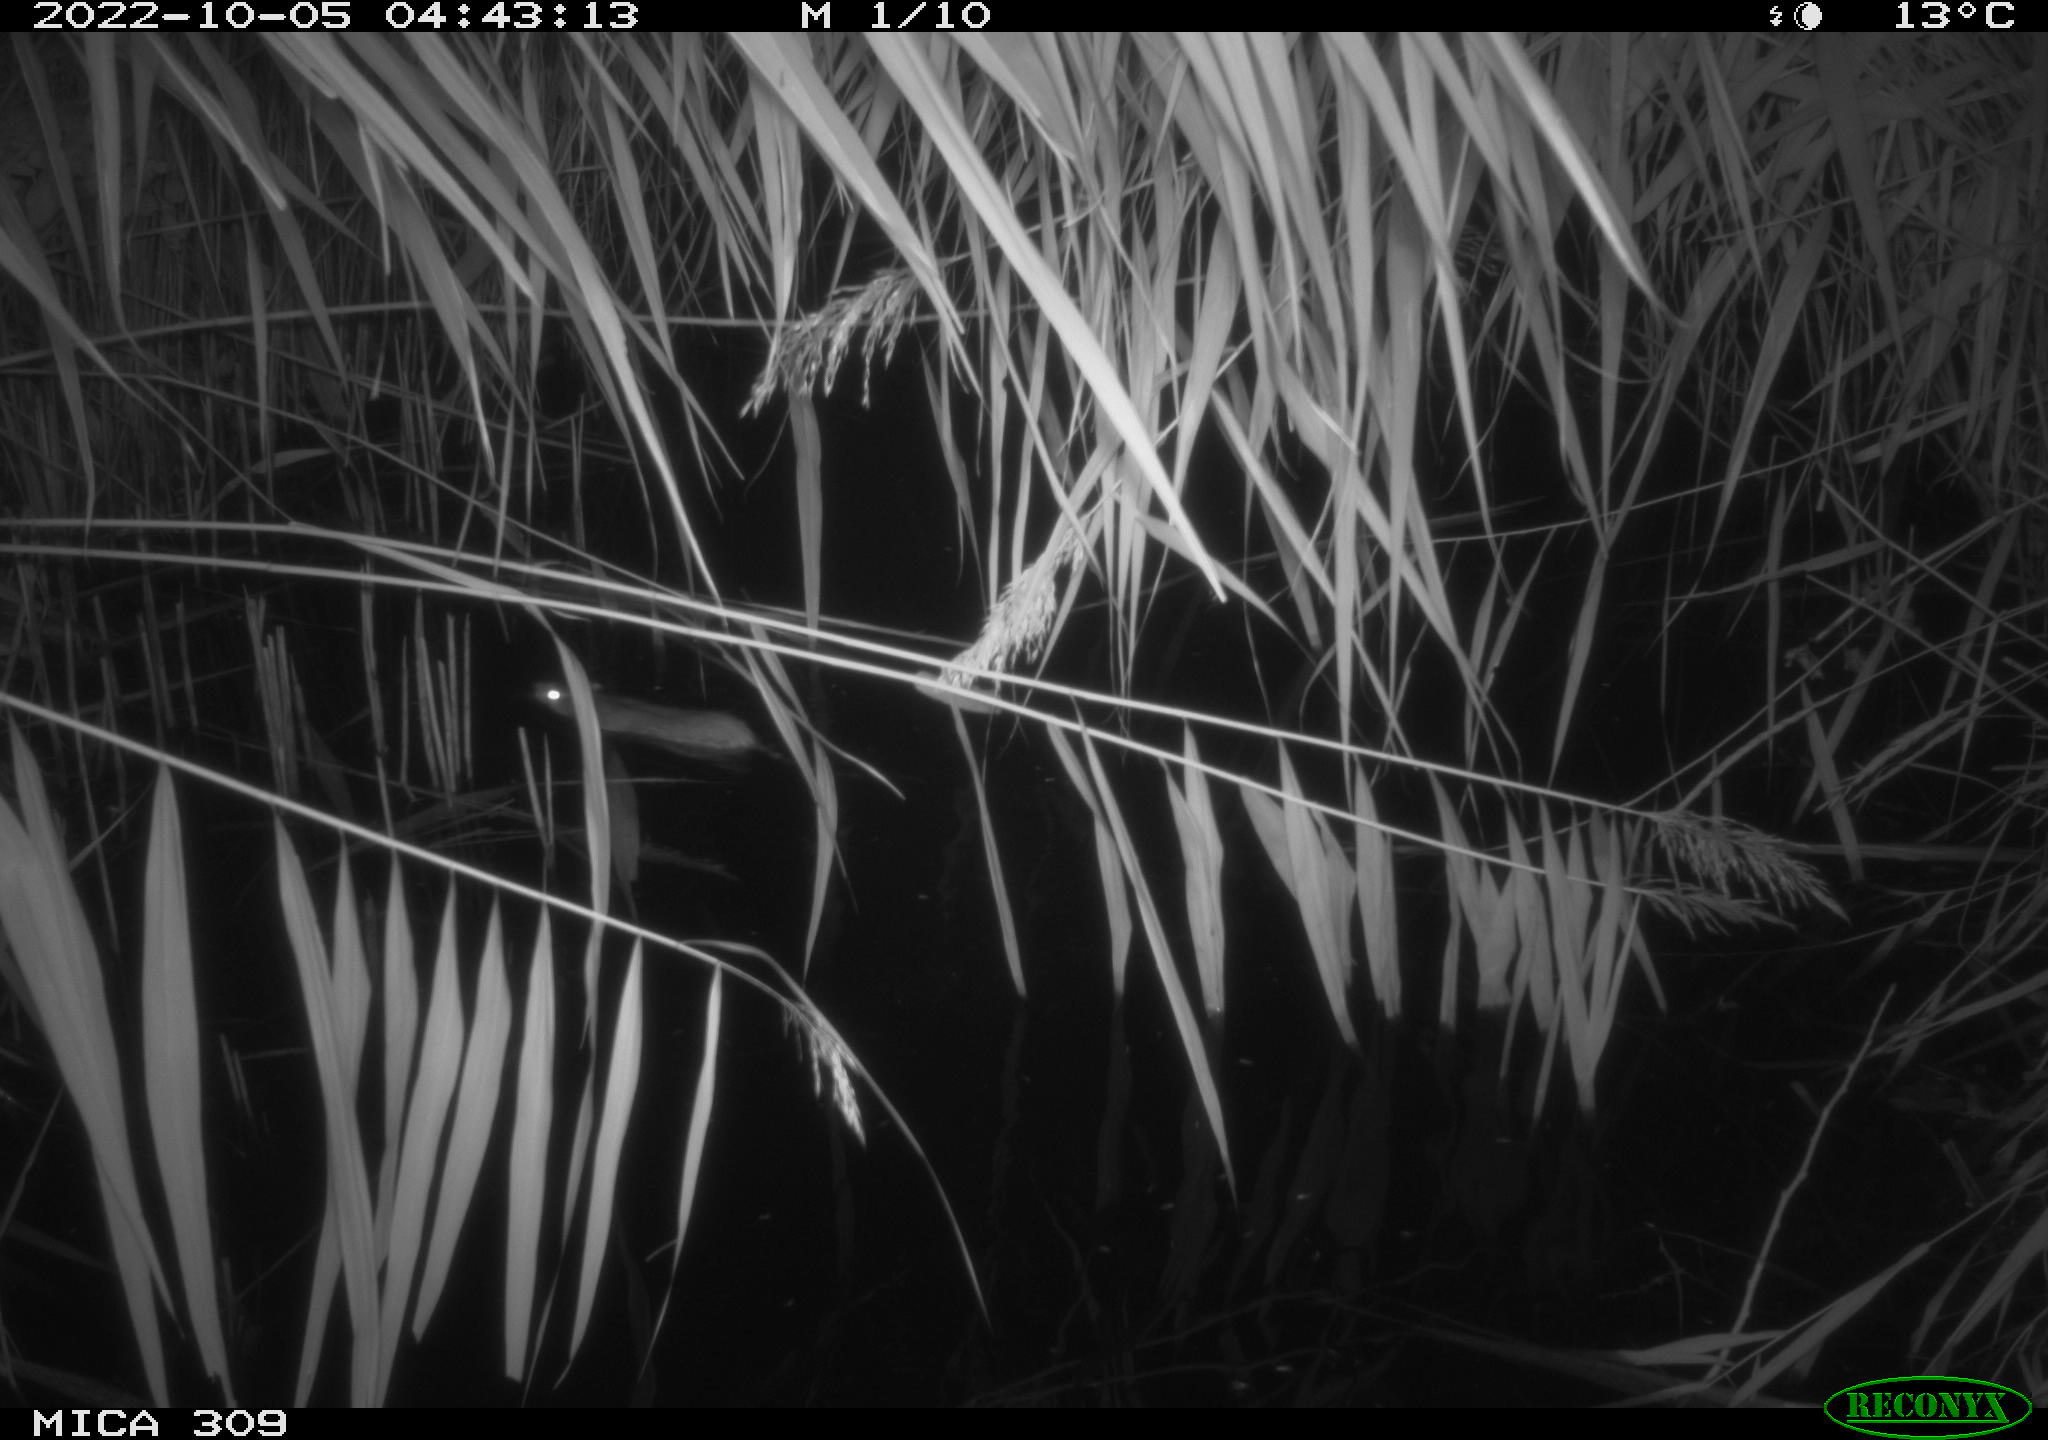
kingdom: Animalia
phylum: Chordata
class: Mammalia
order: Rodentia
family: Muridae
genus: Rattus
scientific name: Rattus norvegicus
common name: Brown rat
